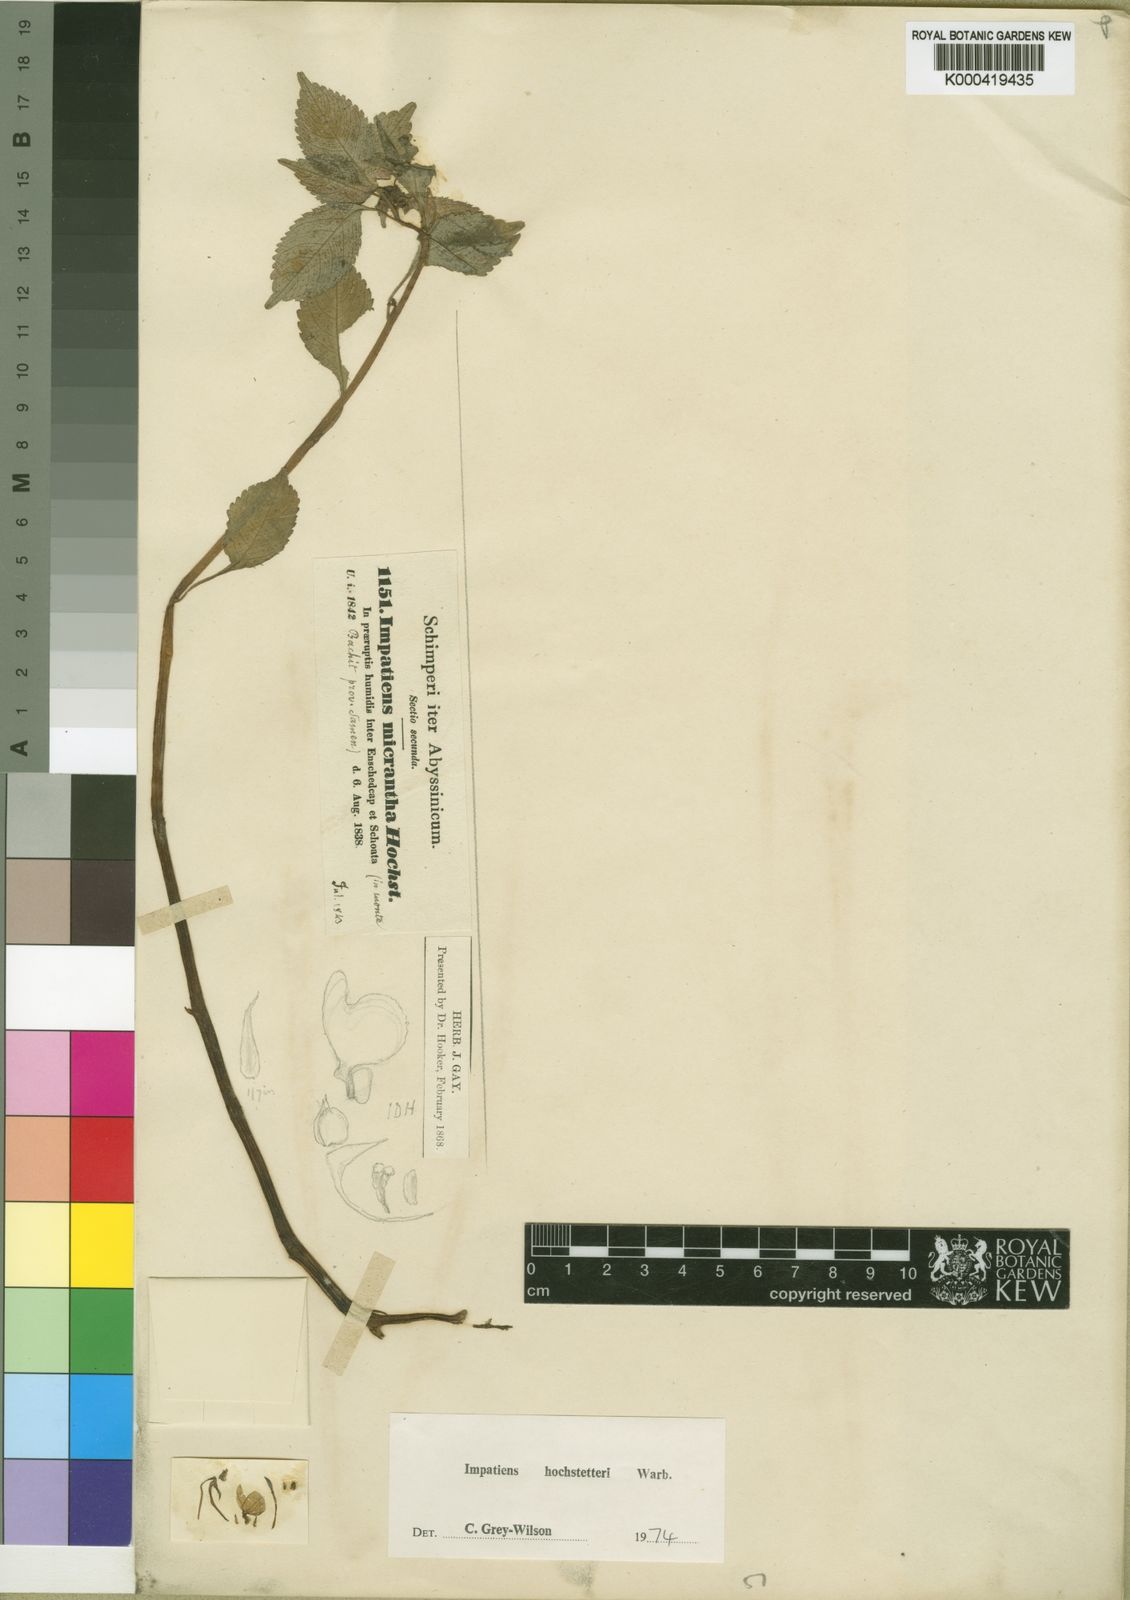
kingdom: Plantae
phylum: Tracheophyta
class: Magnoliopsida
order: Ericales
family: Balsaminaceae
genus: Impatiens
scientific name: Impatiens hochstetteri
